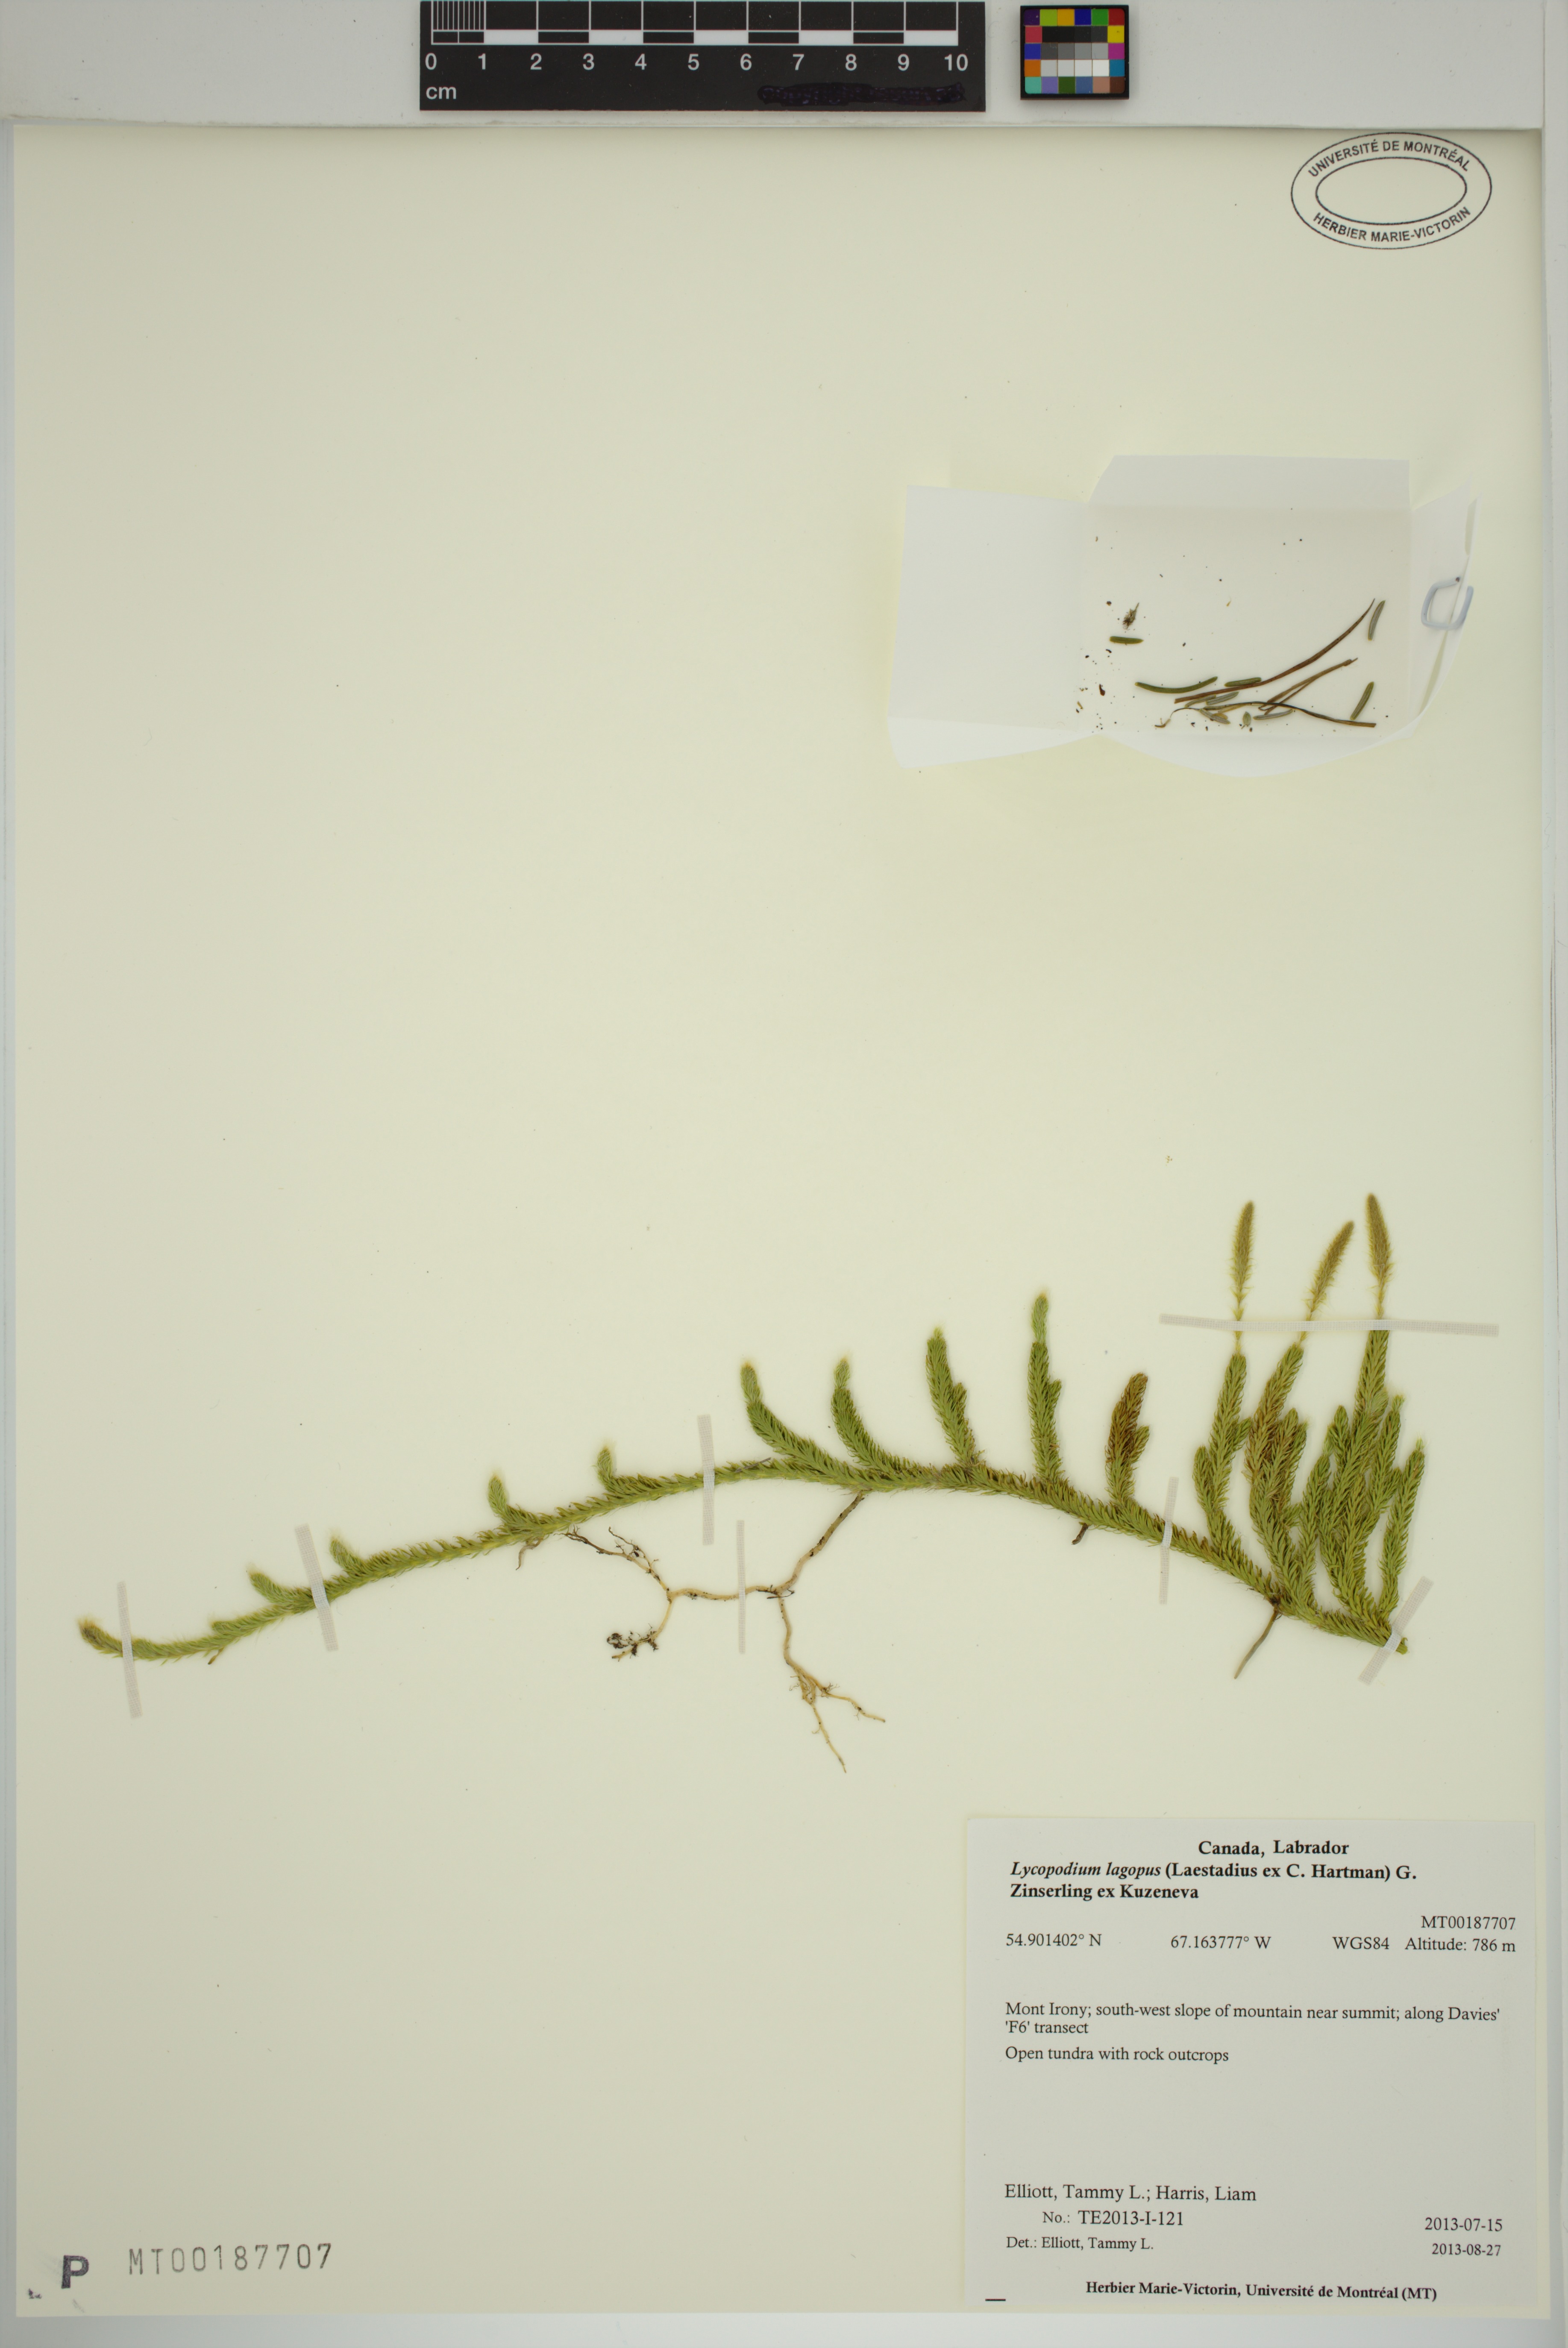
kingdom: Plantae
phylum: Tracheophyta
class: Lycopodiopsida
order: Lycopodiales
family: Lycopodiaceae
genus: Lycopodium
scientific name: Lycopodium lagopus
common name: One-cone clubmoss
